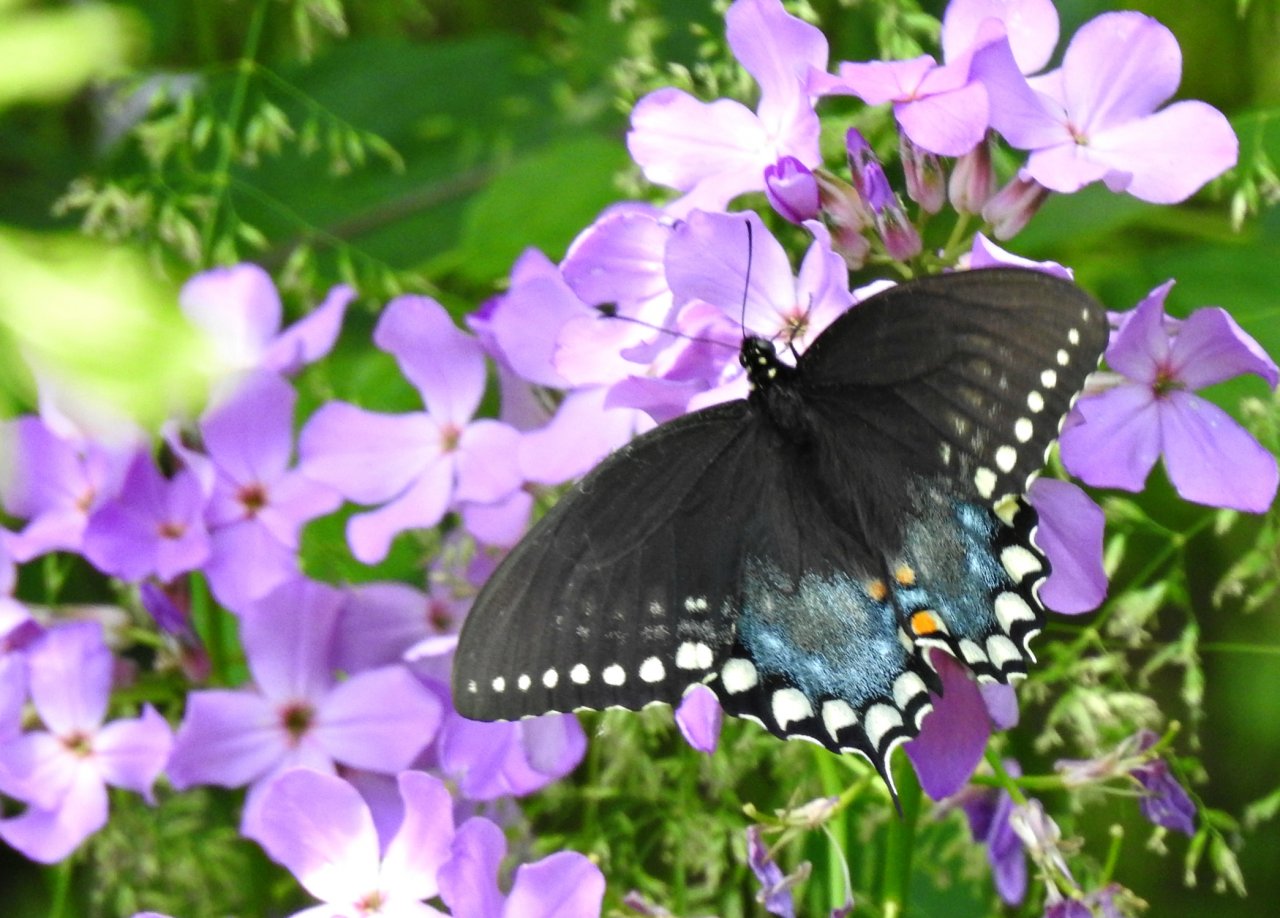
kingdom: Animalia
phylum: Arthropoda
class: Insecta
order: Lepidoptera
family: Papilionidae
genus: Pterourus
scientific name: Pterourus troilus
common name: Spicebush Swallowtail
